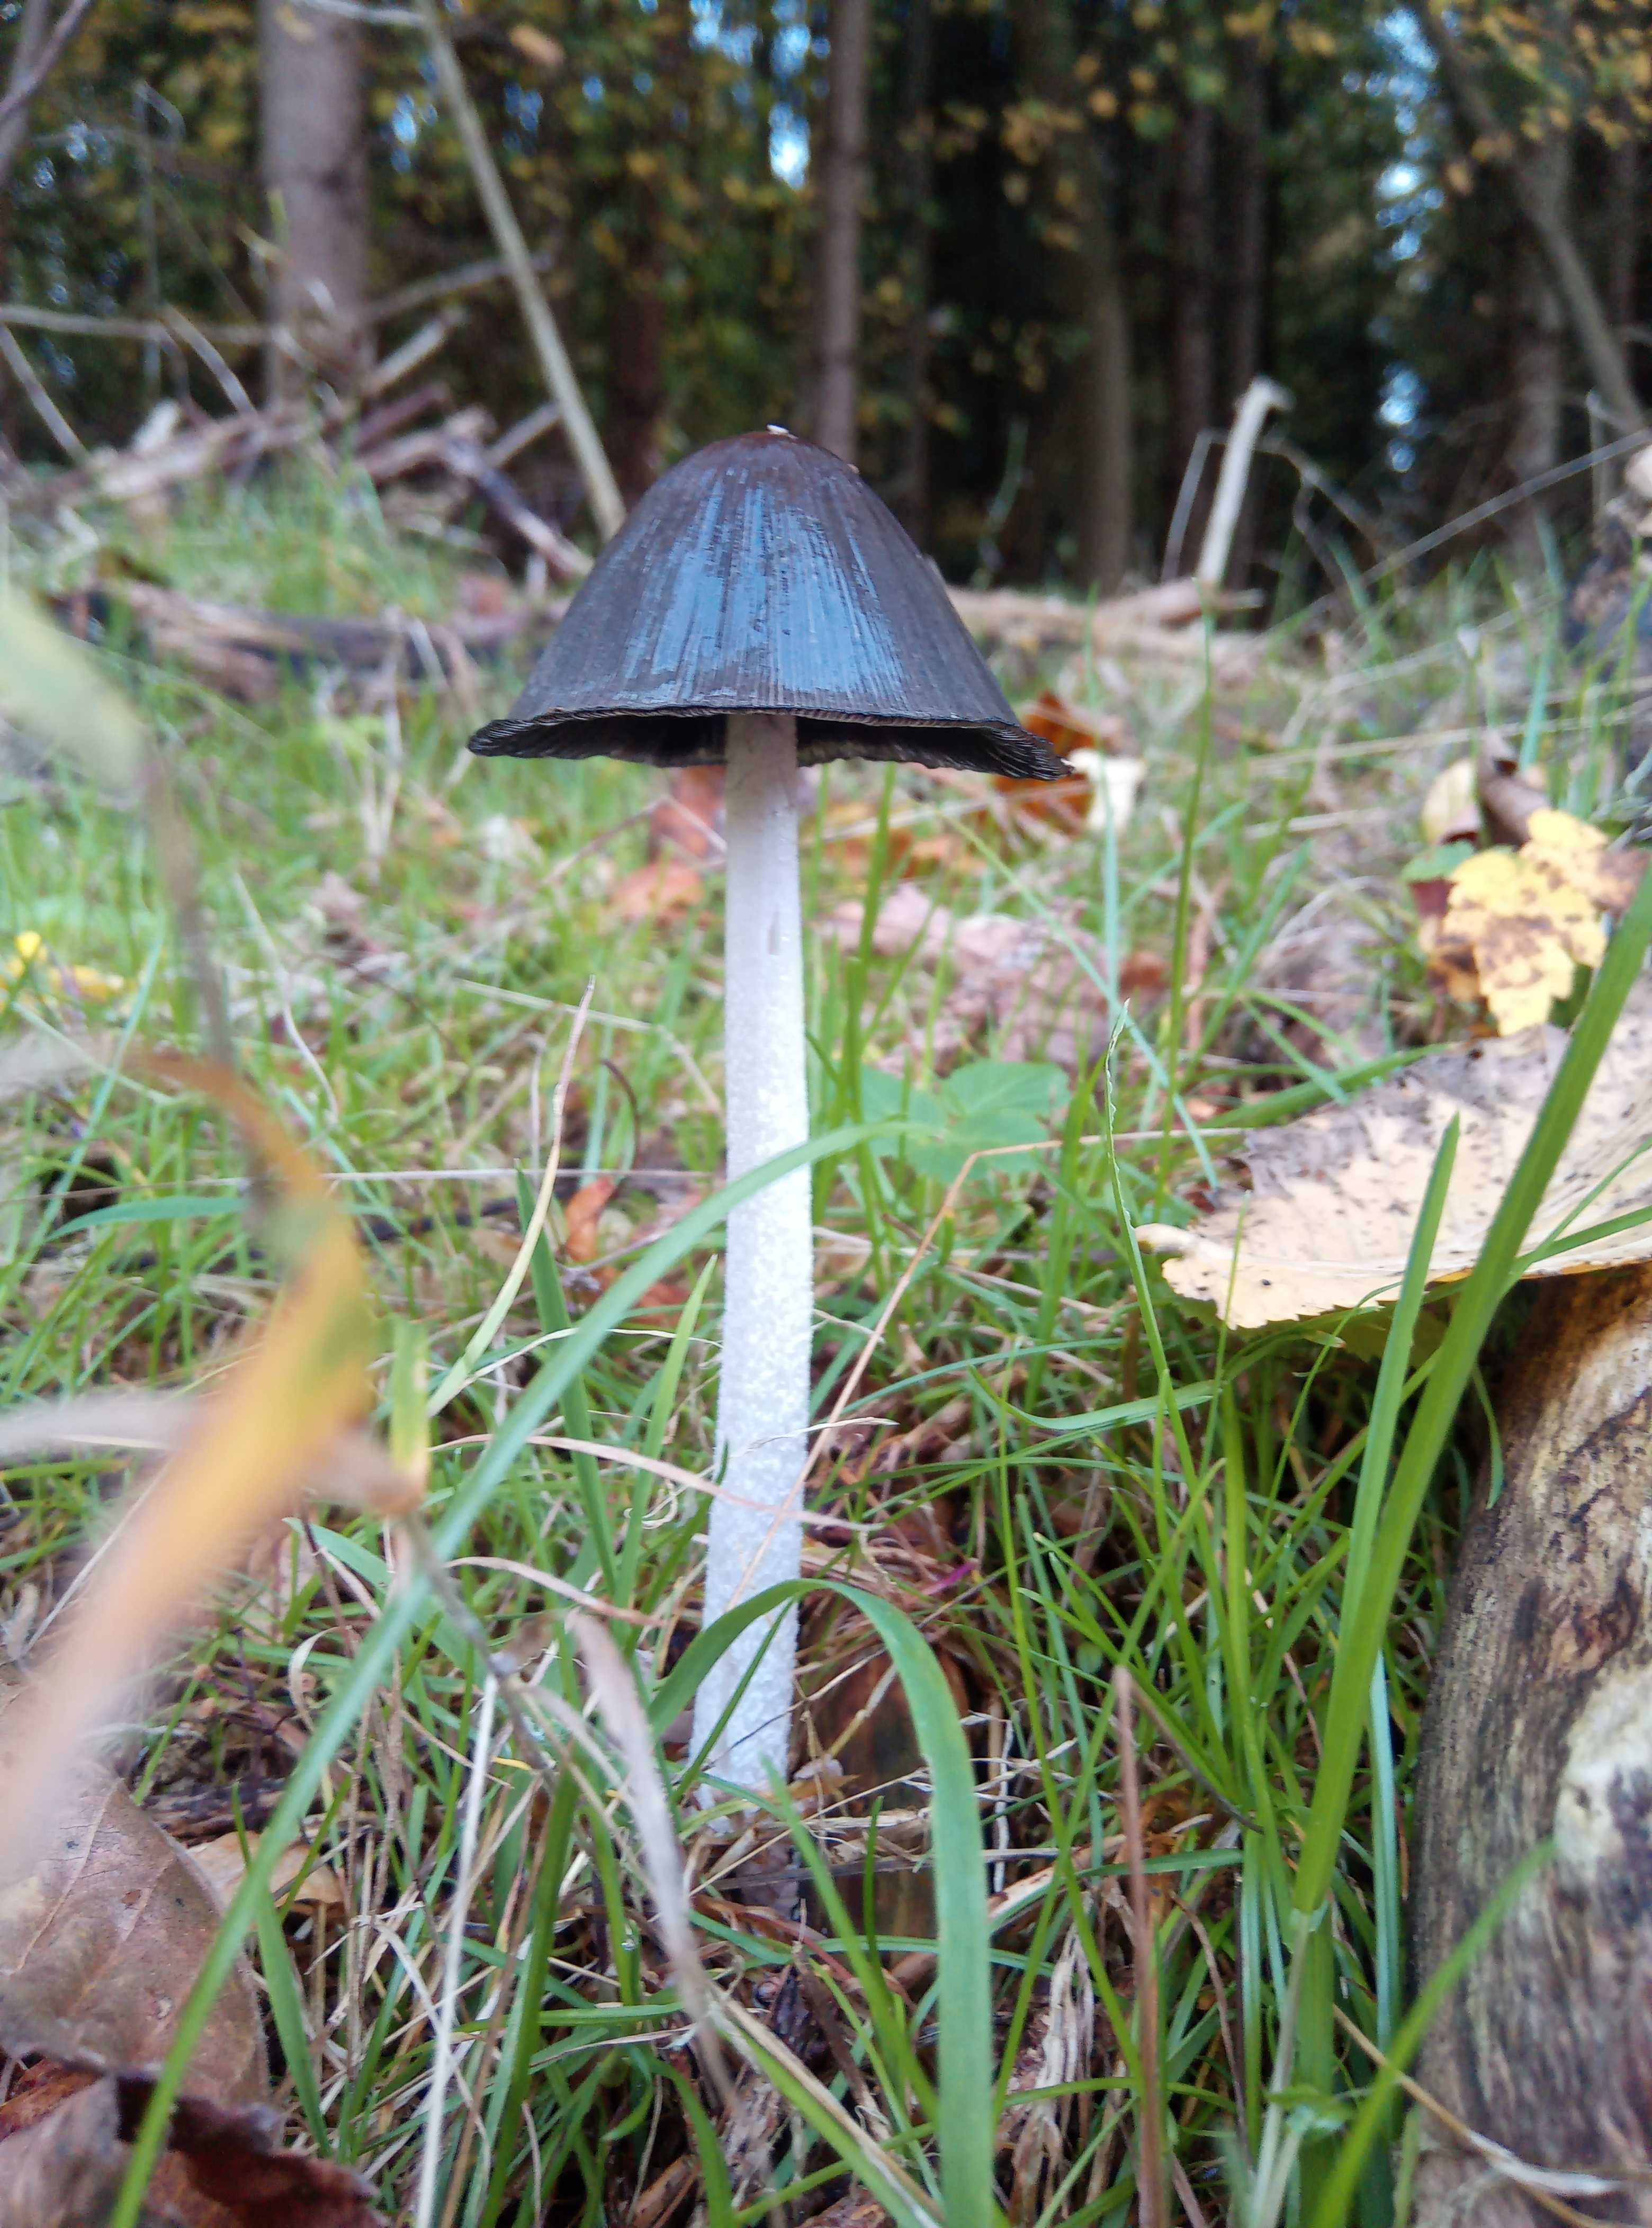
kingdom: Fungi
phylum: Basidiomycota
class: Agaricomycetes
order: Agaricales
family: Psathyrellaceae
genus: Coprinopsis
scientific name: Coprinopsis
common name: blækhat
